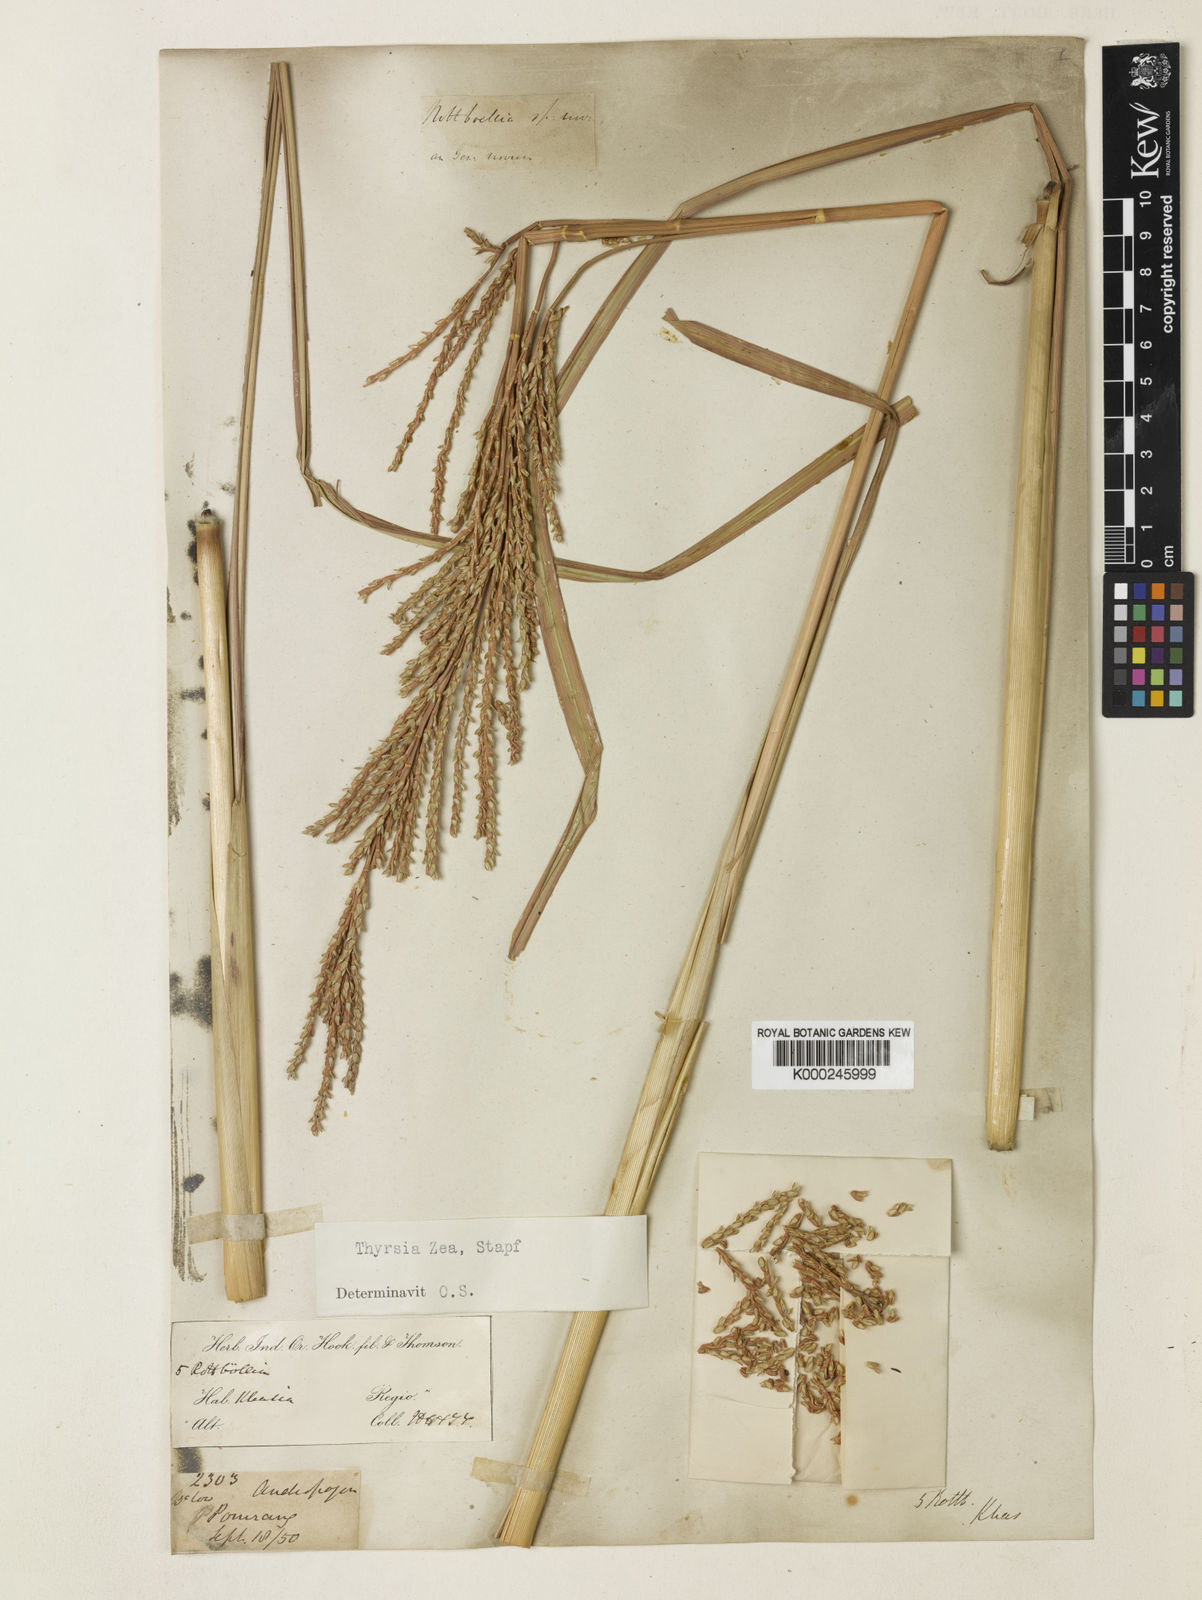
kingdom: Plantae
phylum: Tracheophyta
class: Liliopsida
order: Poales
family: Poaceae
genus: Thyrsia
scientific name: Thyrsia zea
